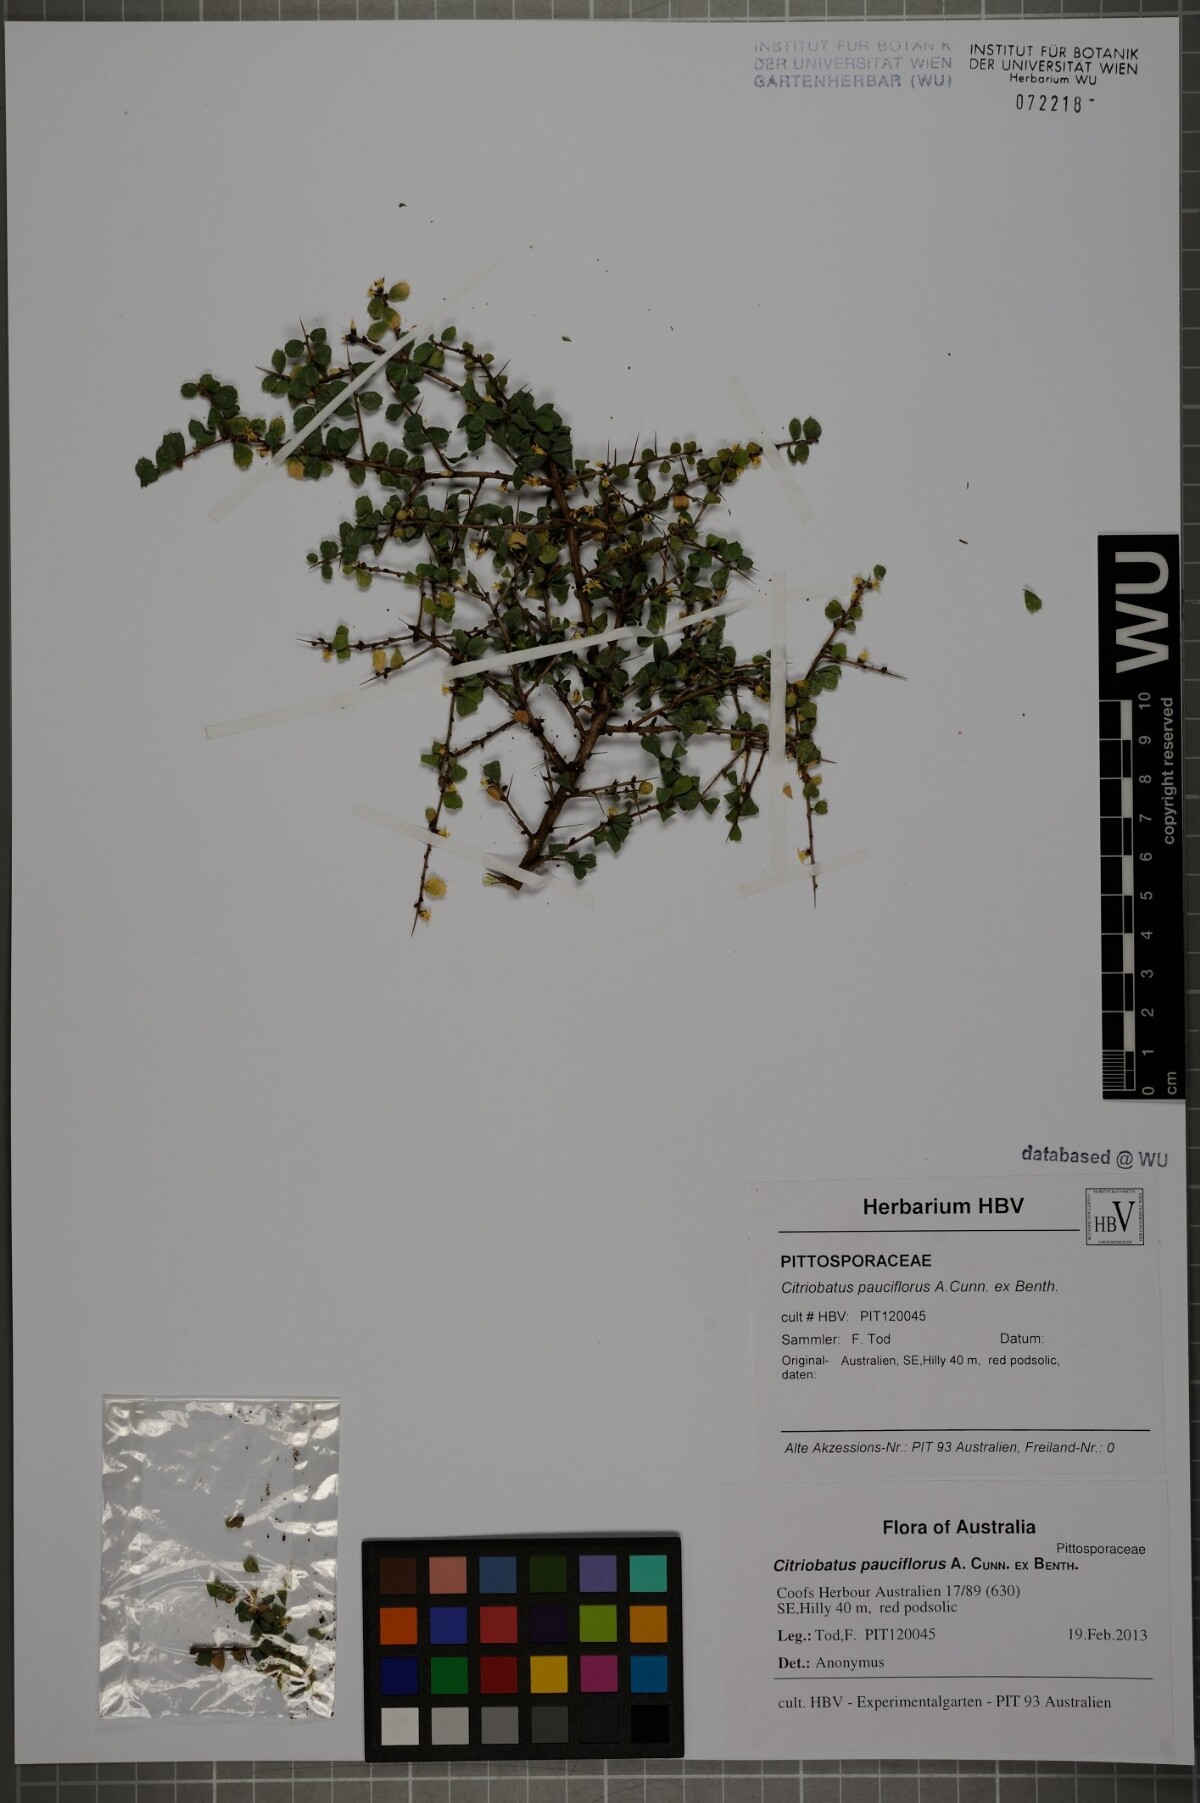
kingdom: Plantae
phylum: Tracheophyta
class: Magnoliopsida
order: Apiales
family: Pittosporaceae
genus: Pittosporum
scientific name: Pittosporum multiflorum
